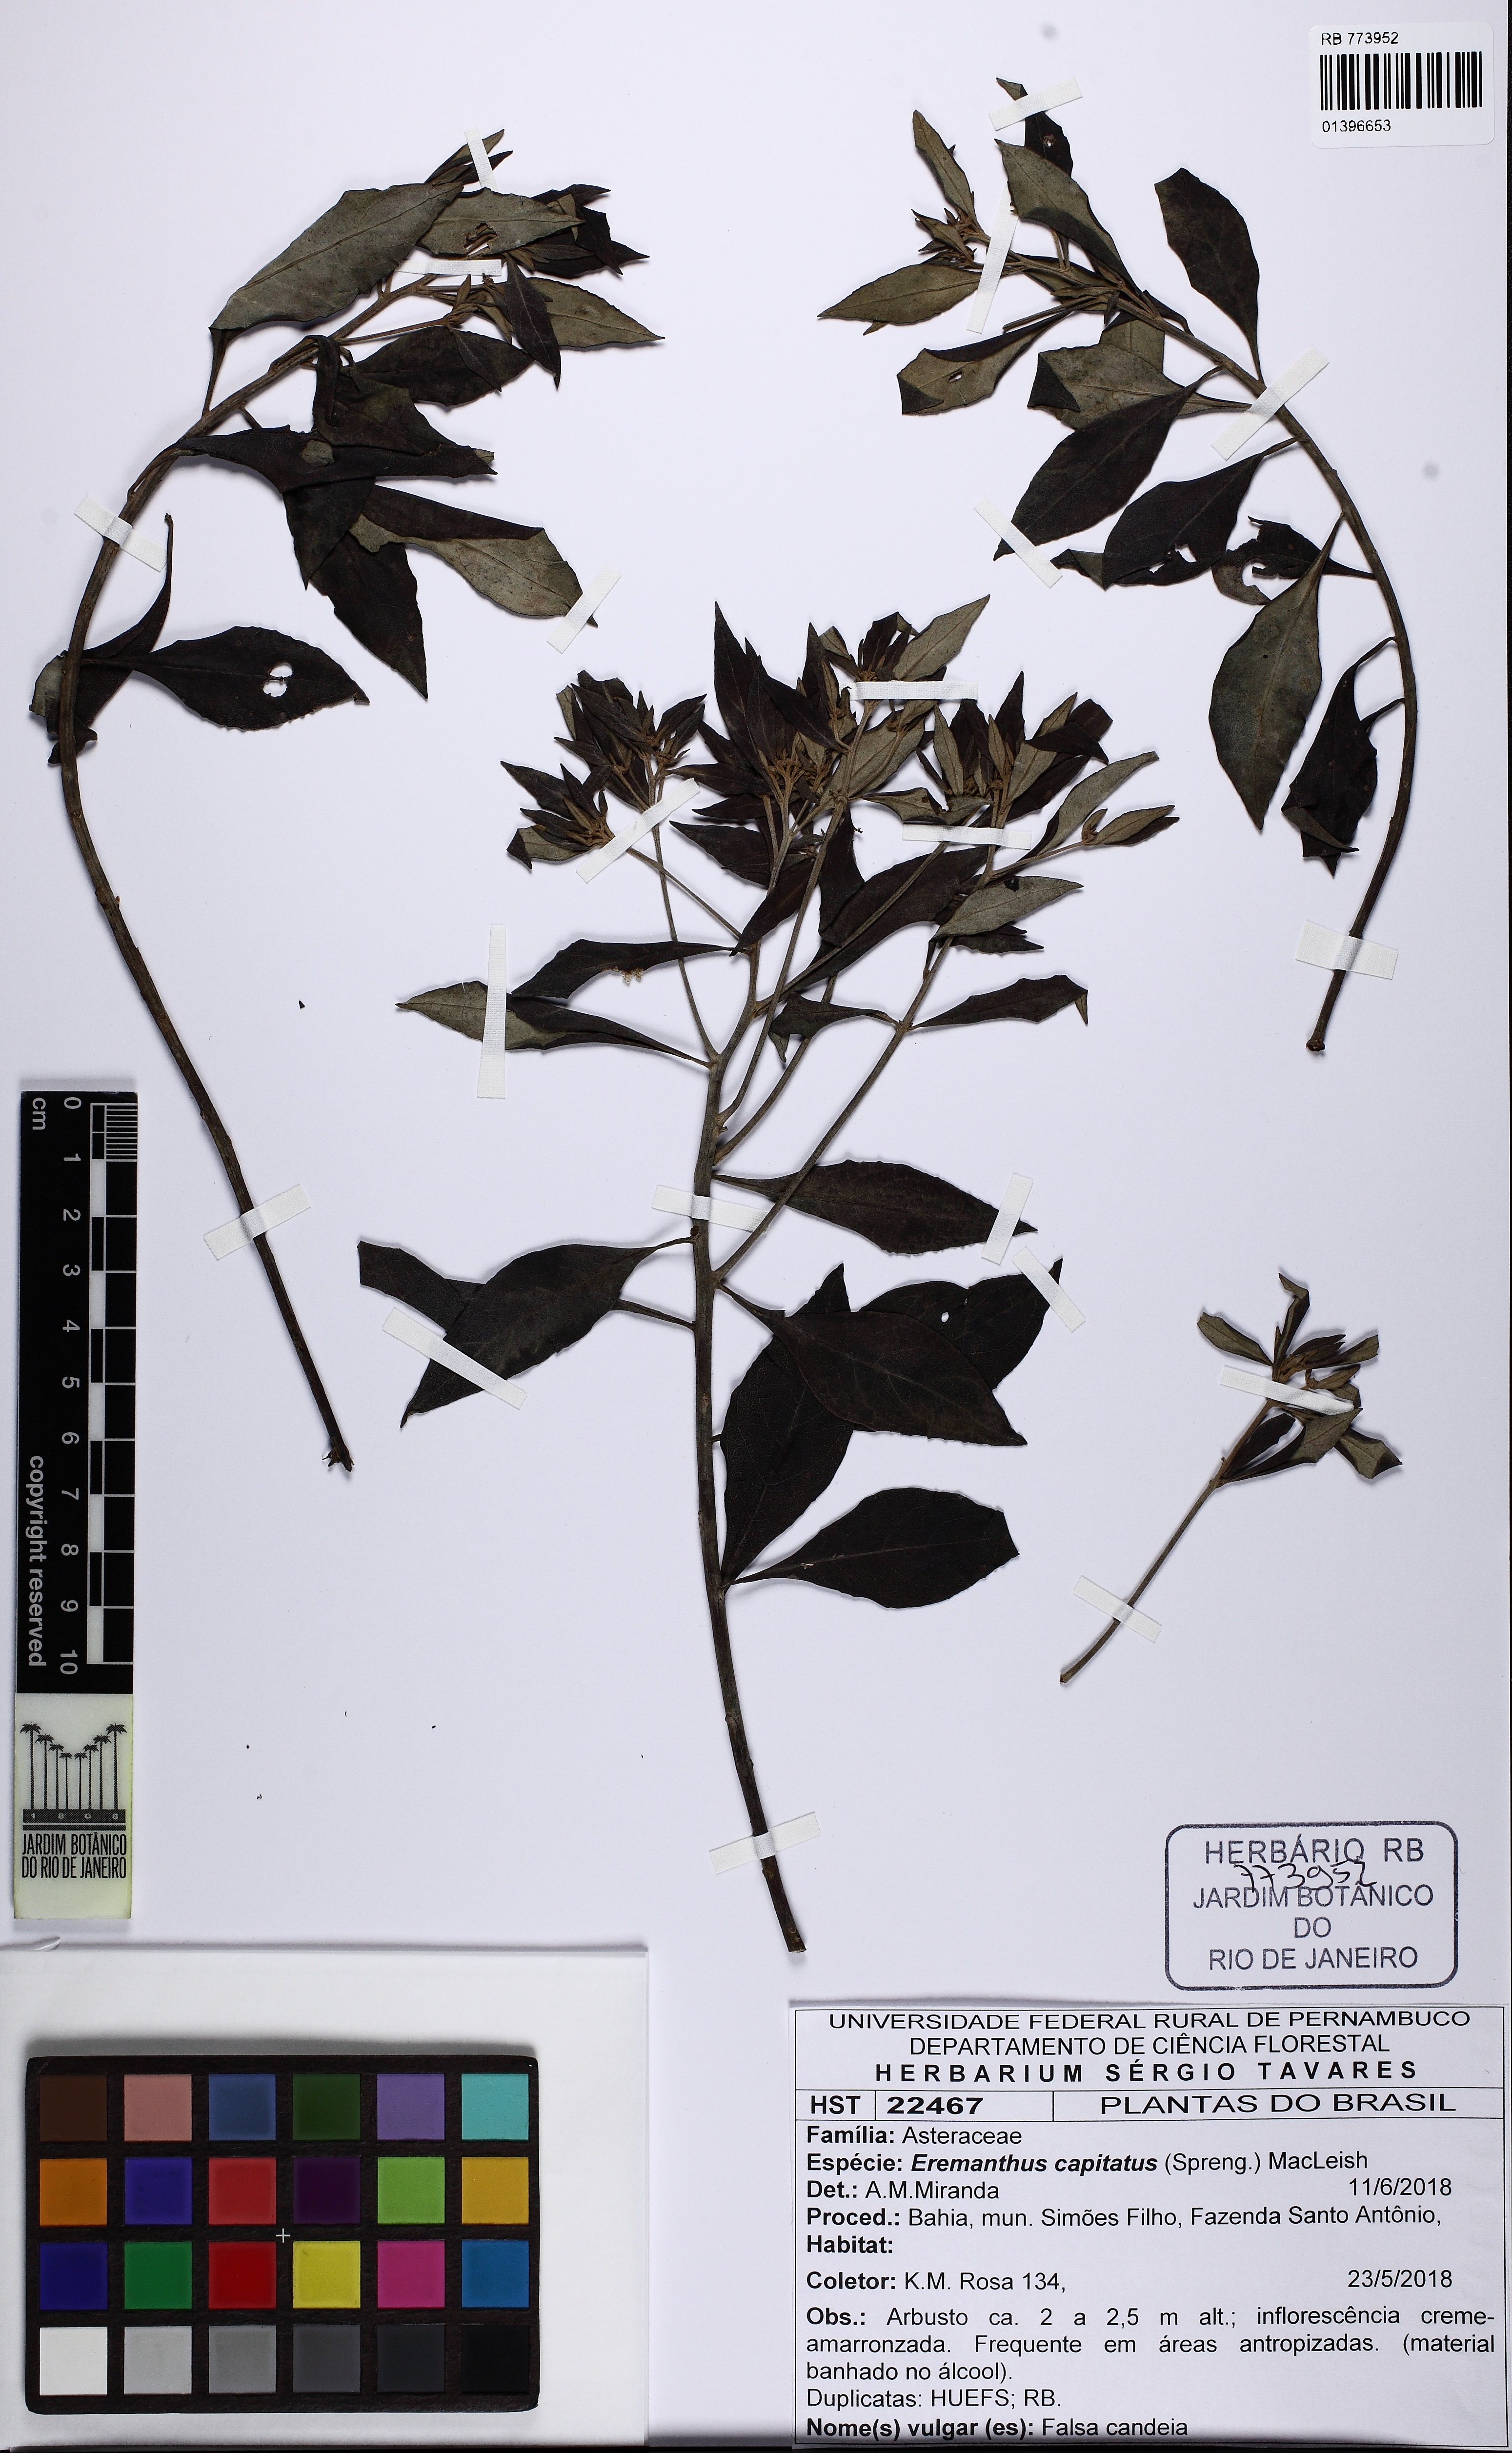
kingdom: Plantae
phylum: Tracheophyta
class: Magnoliopsida
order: Asterales
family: Asteraceae
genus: Eremanthus
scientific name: Eremanthus capitatus
